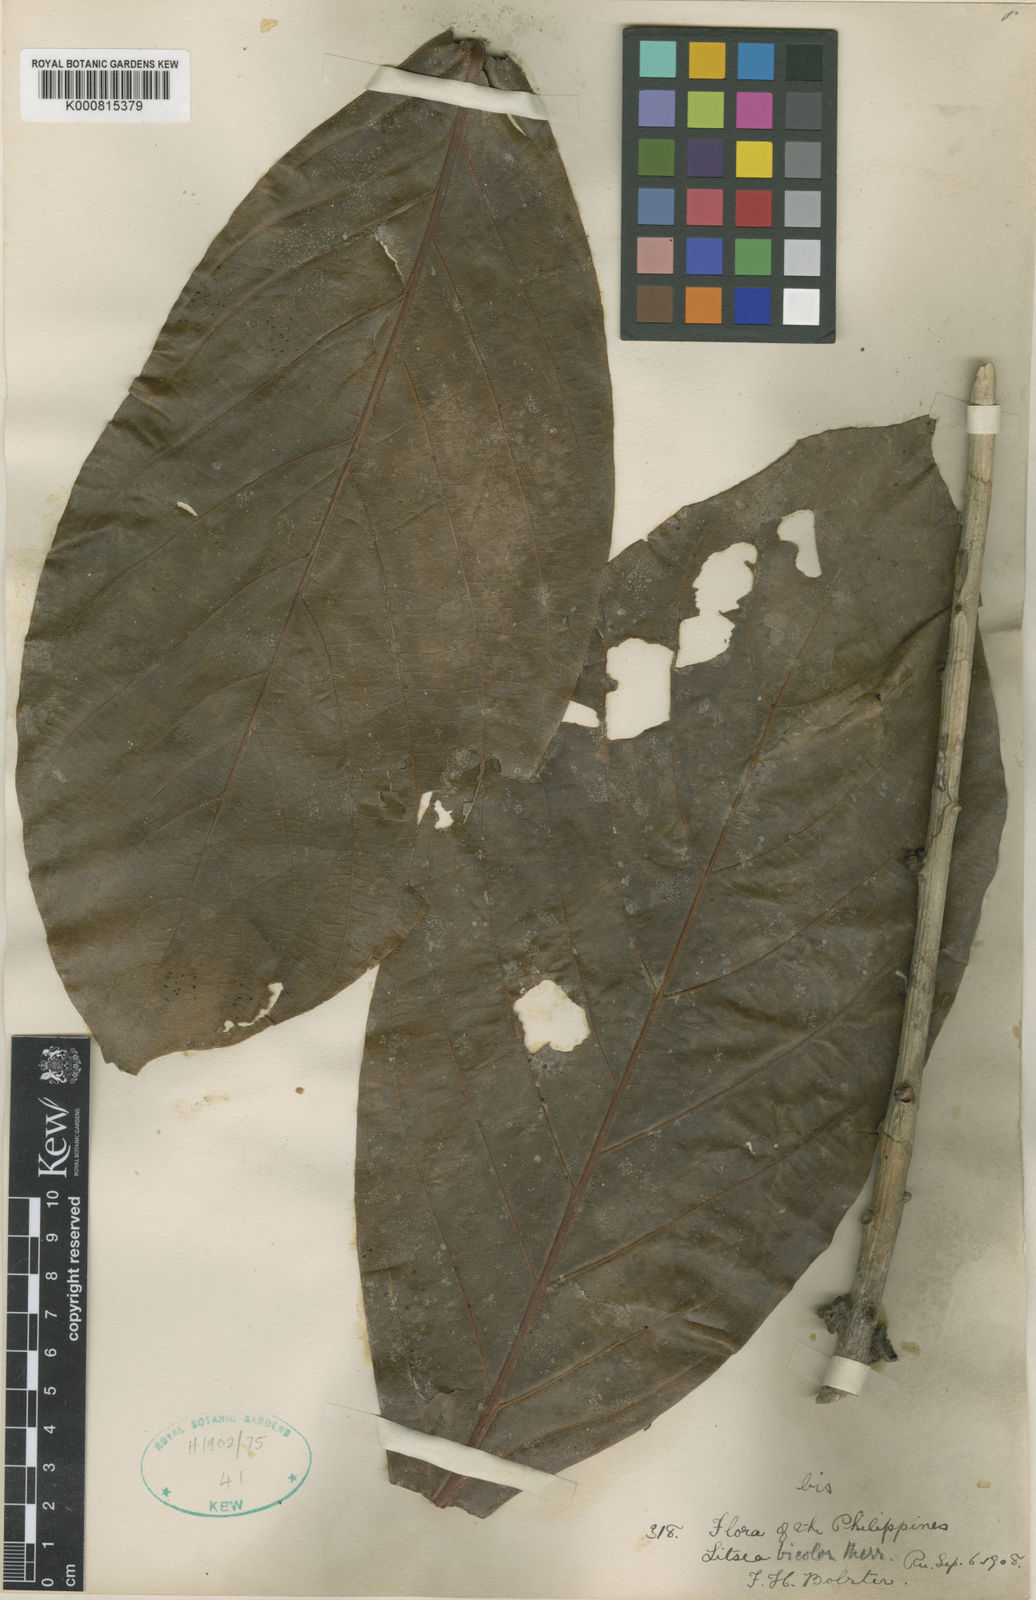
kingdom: Plantae
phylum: Tracheophyta
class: Magnoliopsida
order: Laurales
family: Lauraceae
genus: Actinodaphne
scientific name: Actinodaphne bicolor
